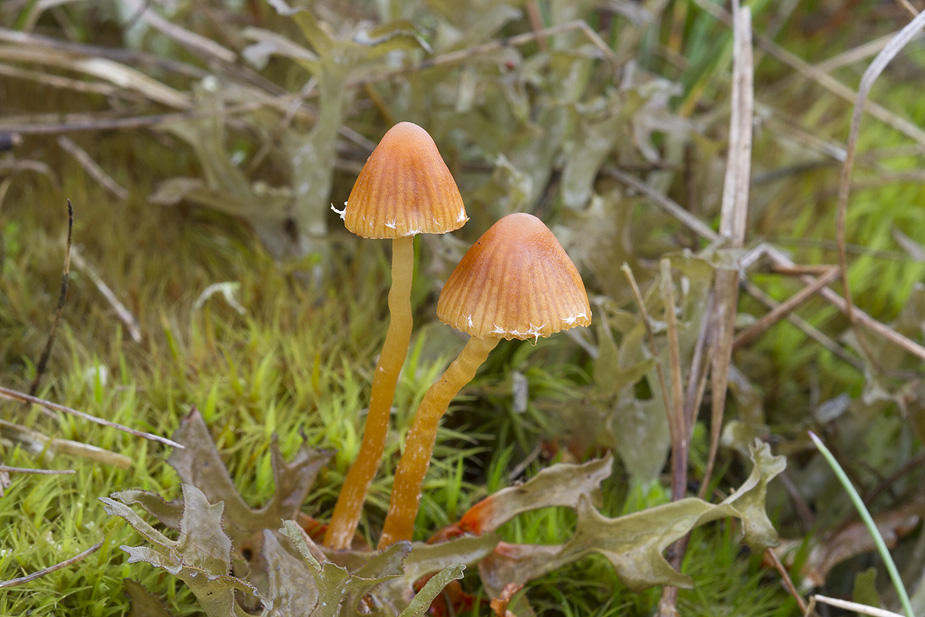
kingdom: Fungi
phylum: Basidiomycota
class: Agaricomycetes
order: Agaricales
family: Hymenogastraceae
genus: Galerina
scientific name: Galerina calyptrata
